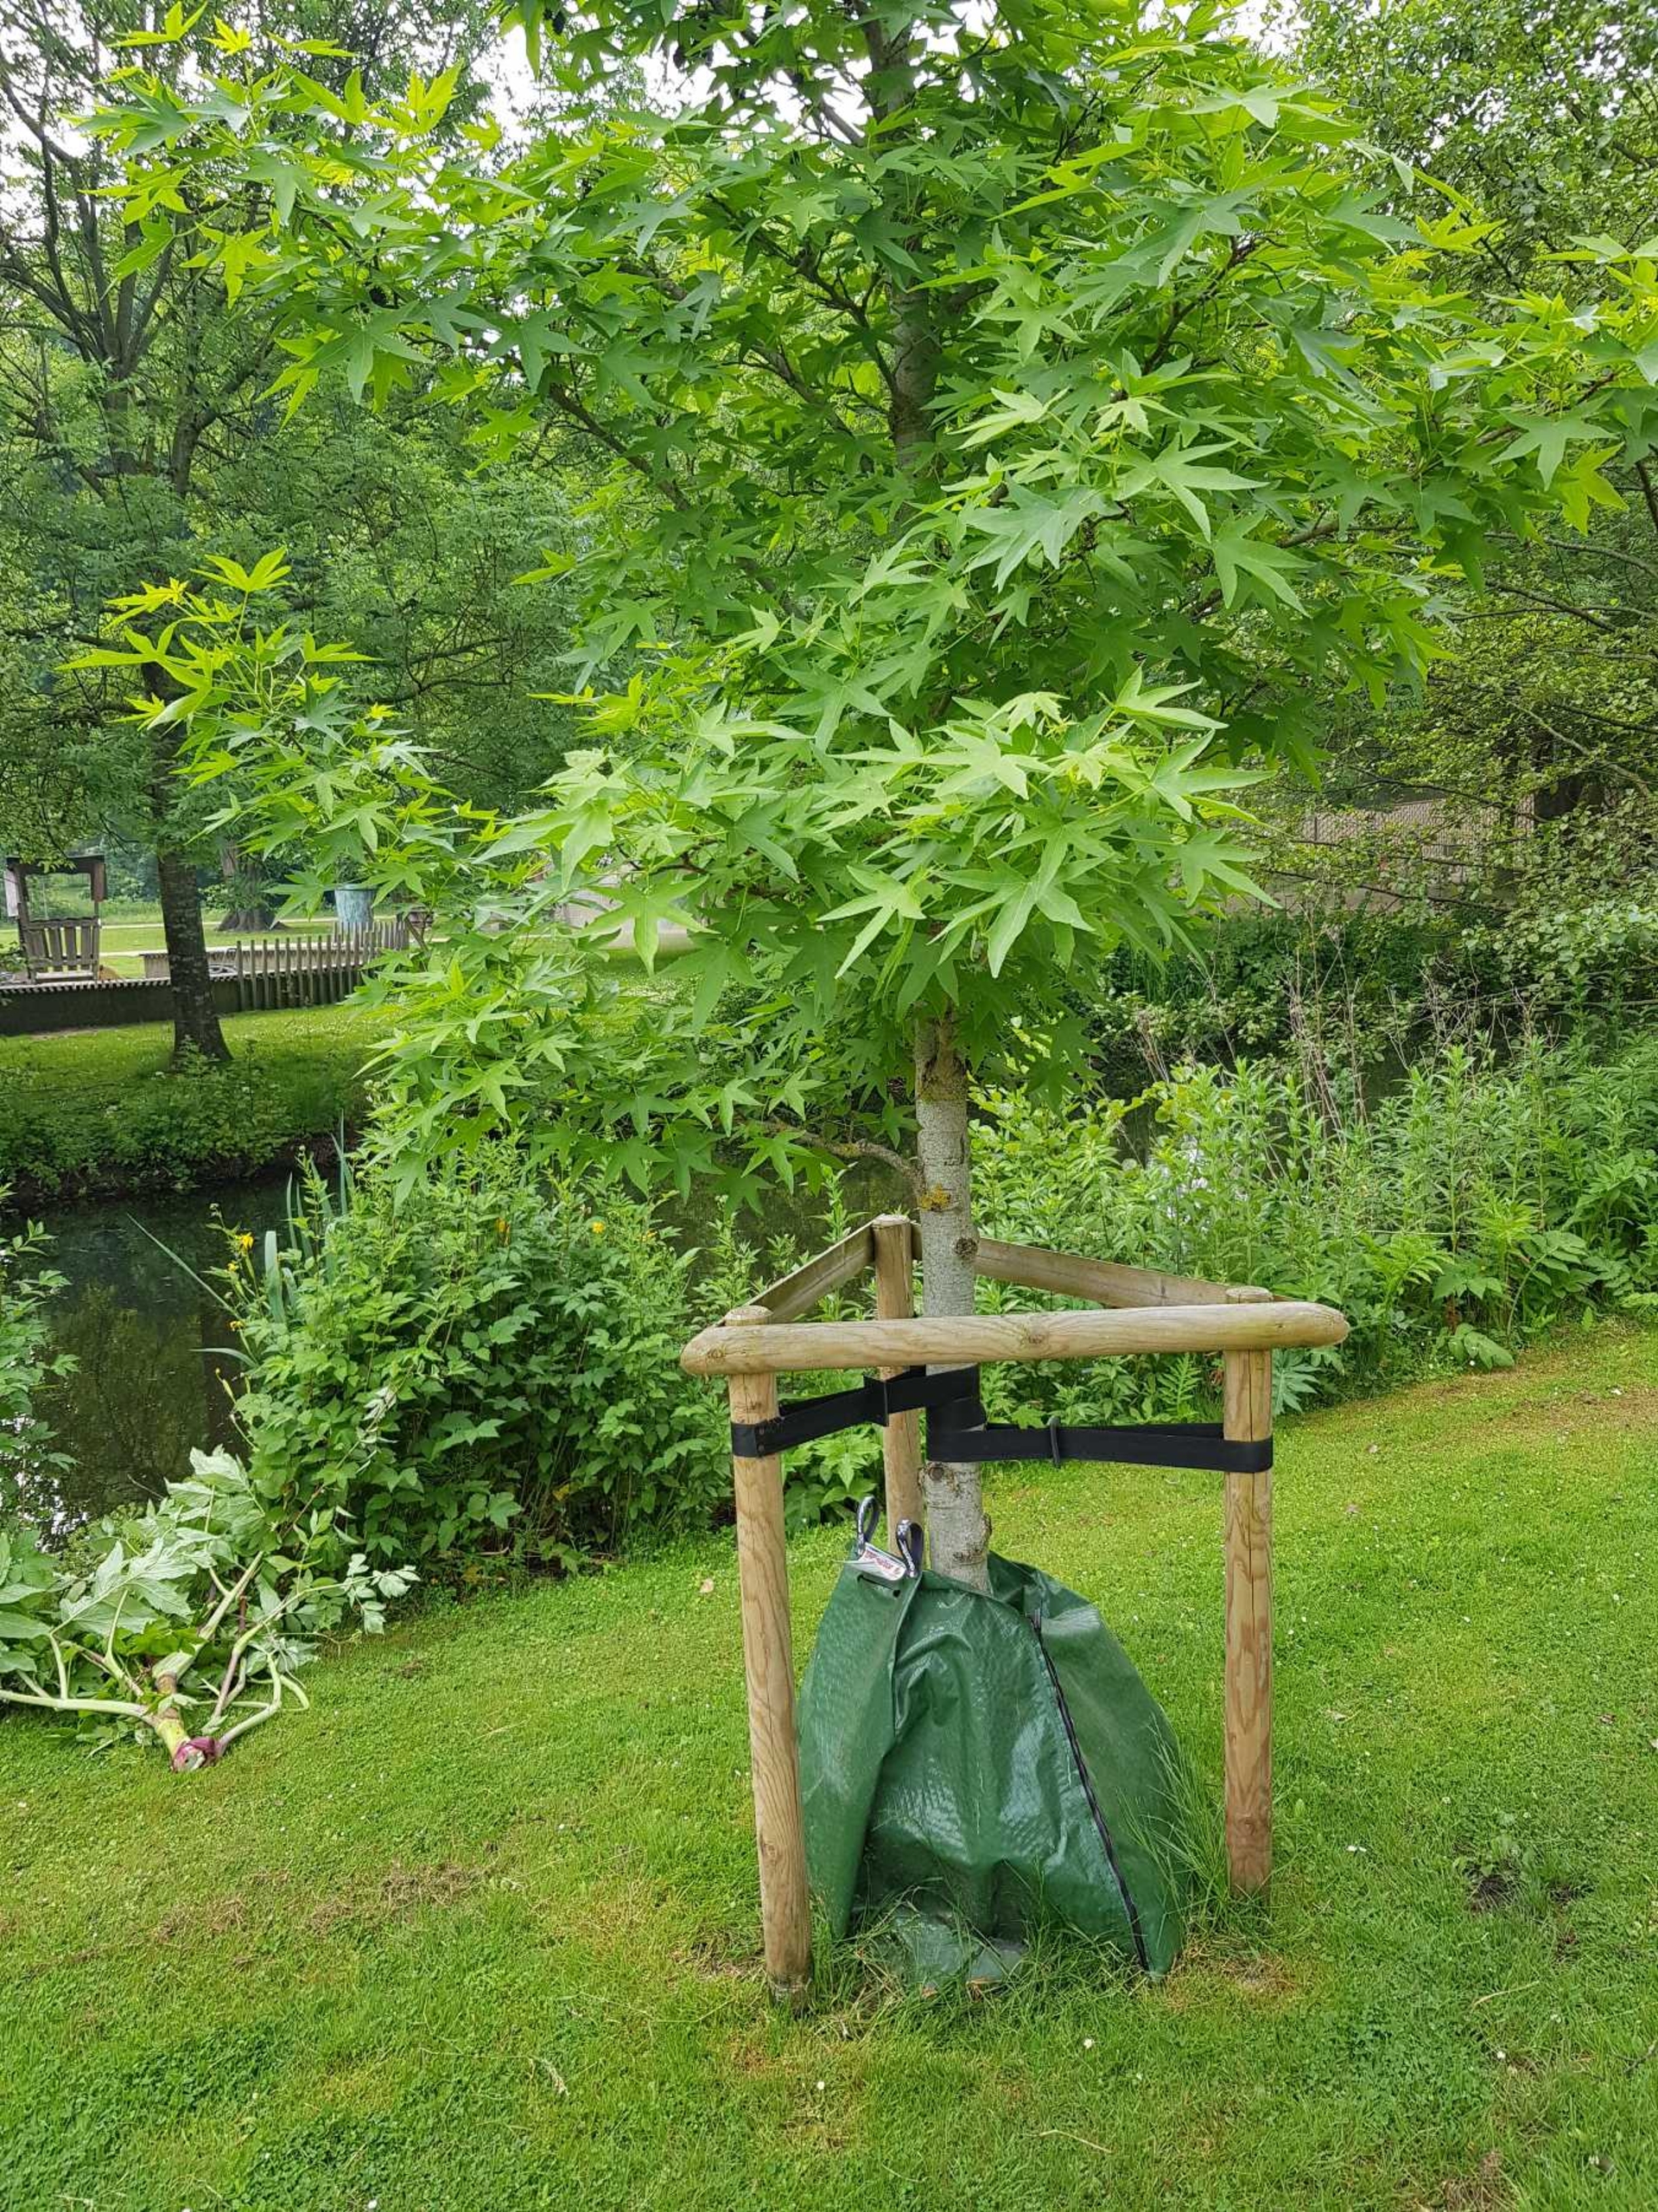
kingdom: Plantae
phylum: Tracheophyta
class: Magnoliopsida
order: Sapindales
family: Sapindaceae
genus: Acer
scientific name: Acer palmatum
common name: Japansk løn
